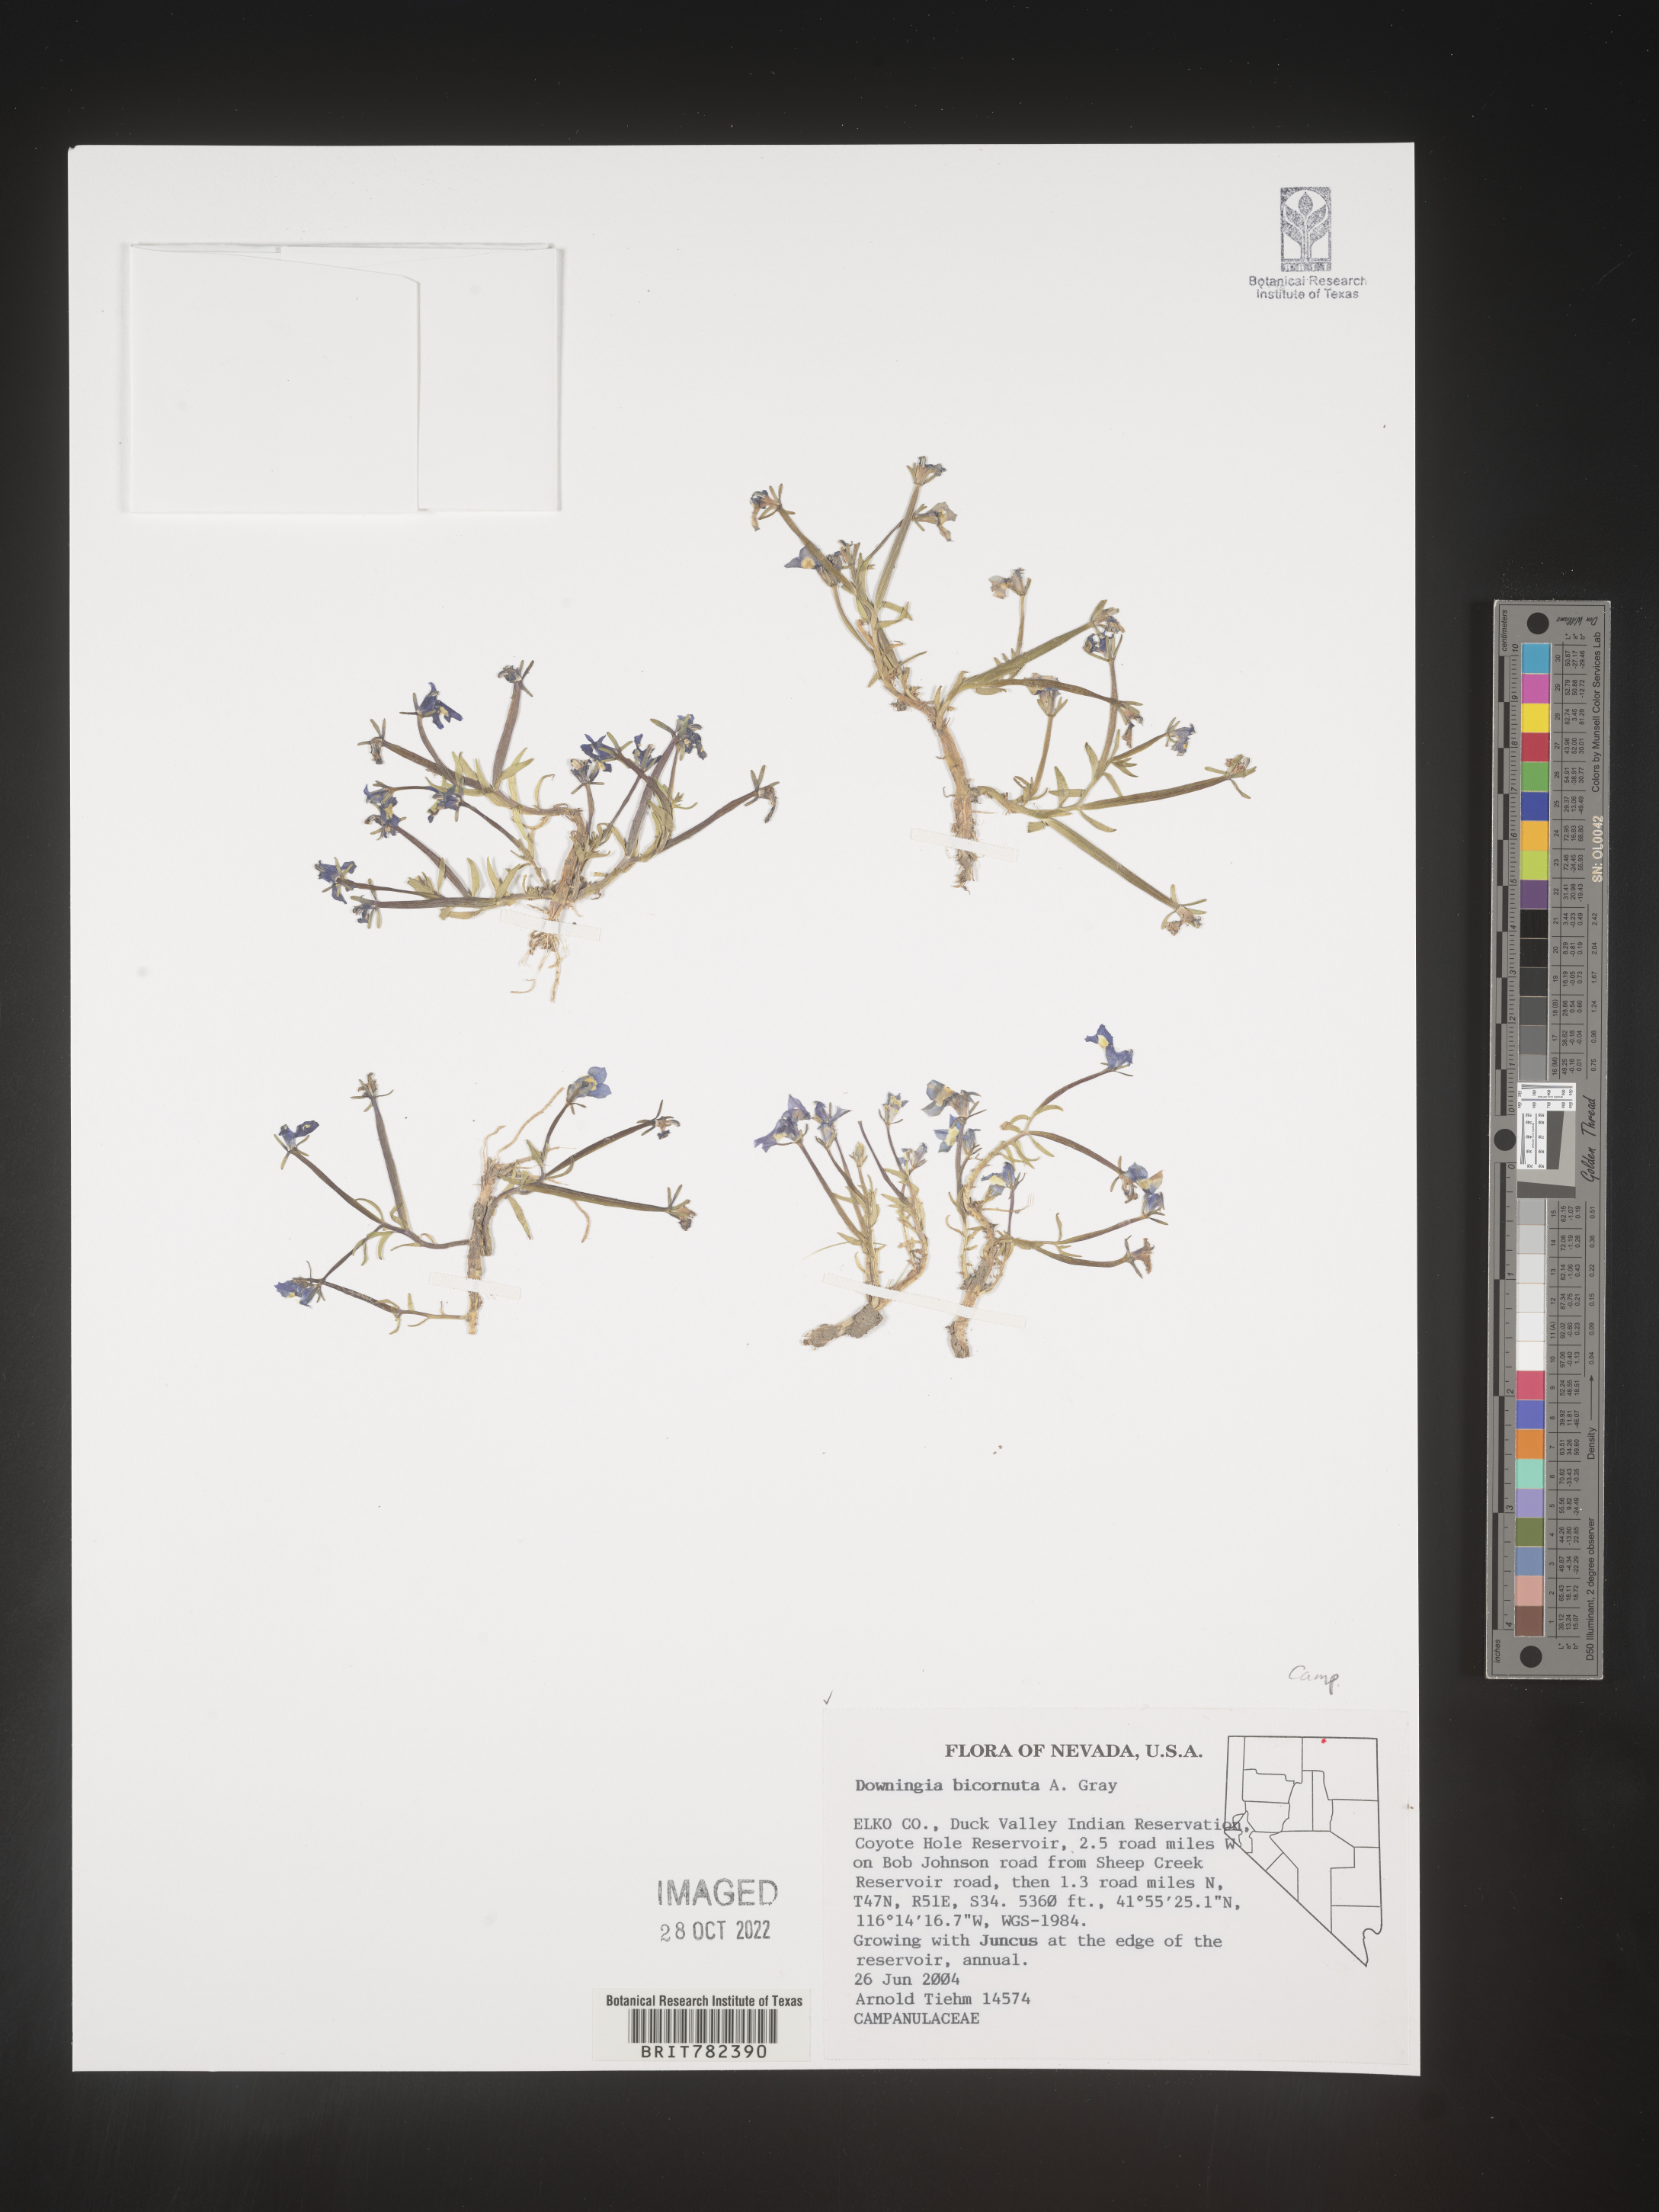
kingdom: Plantae
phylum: Tracheophyta
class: Magnoliopsida
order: Asterales
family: Campanulaceae
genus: Downingia
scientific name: Downingia
